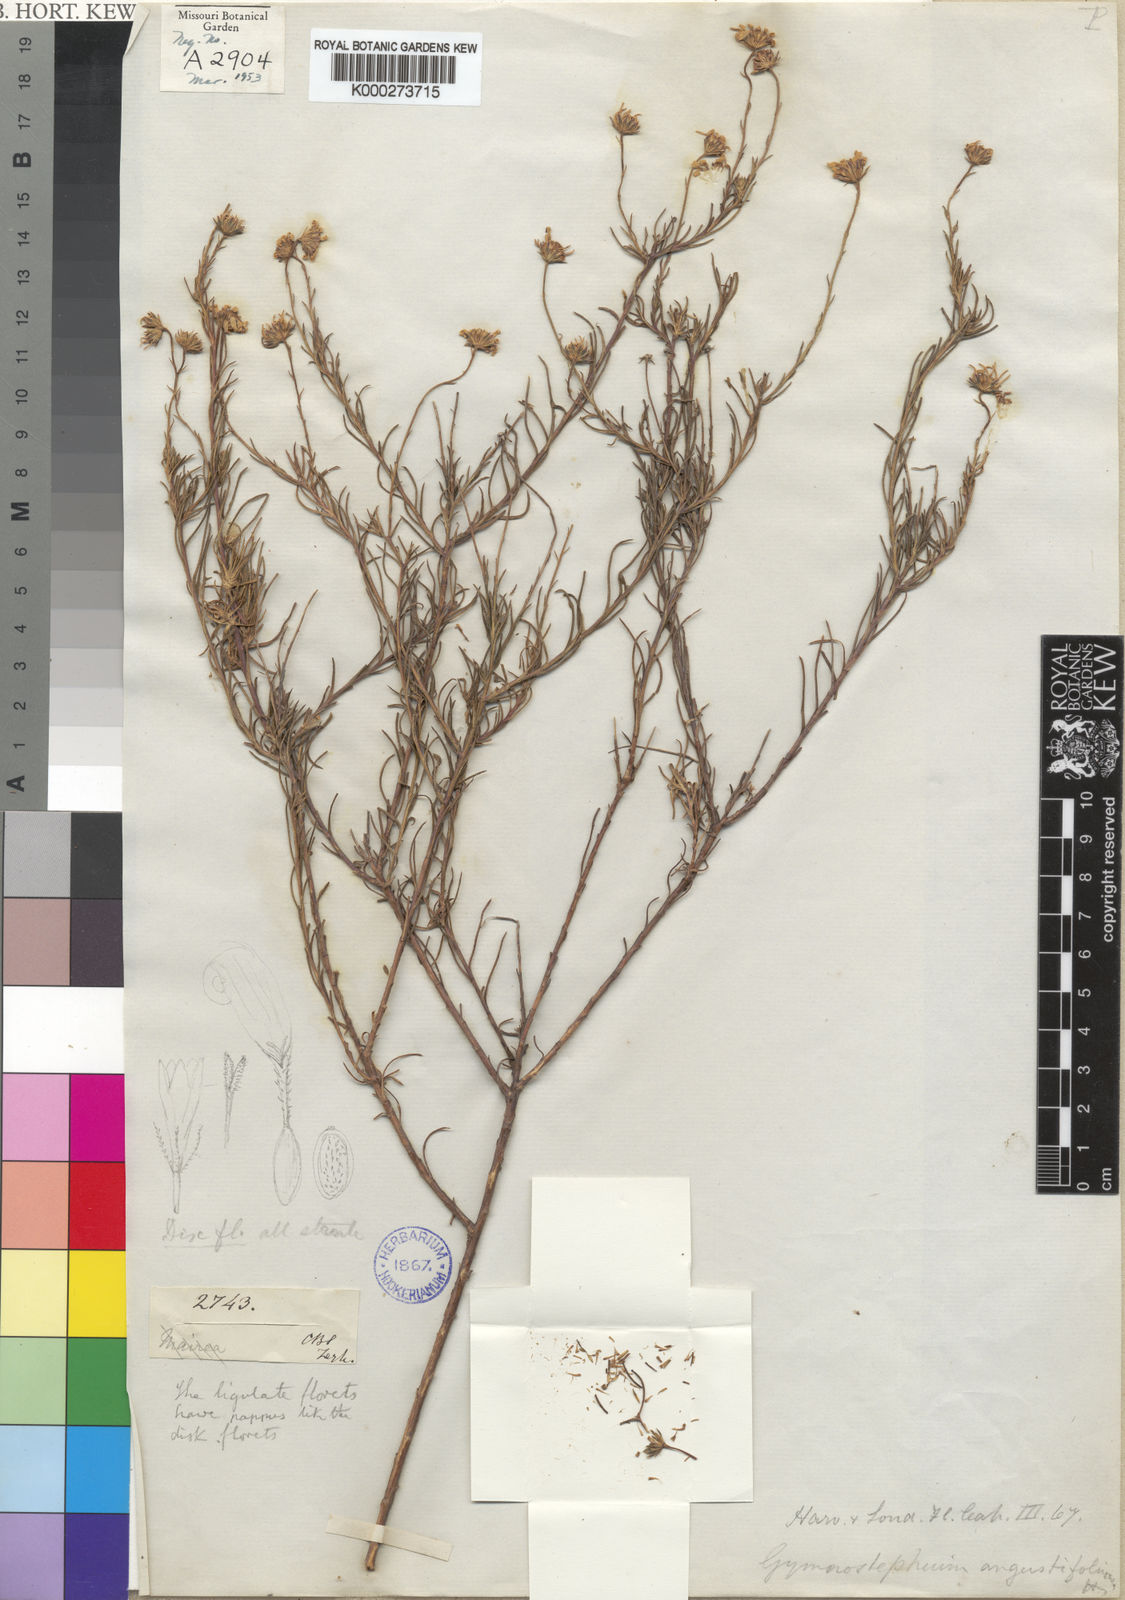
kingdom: Plantae
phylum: Tracheophyta
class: Magnoliopsida
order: Asterales
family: Asteraceae
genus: Felicia
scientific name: Felicia muricata
